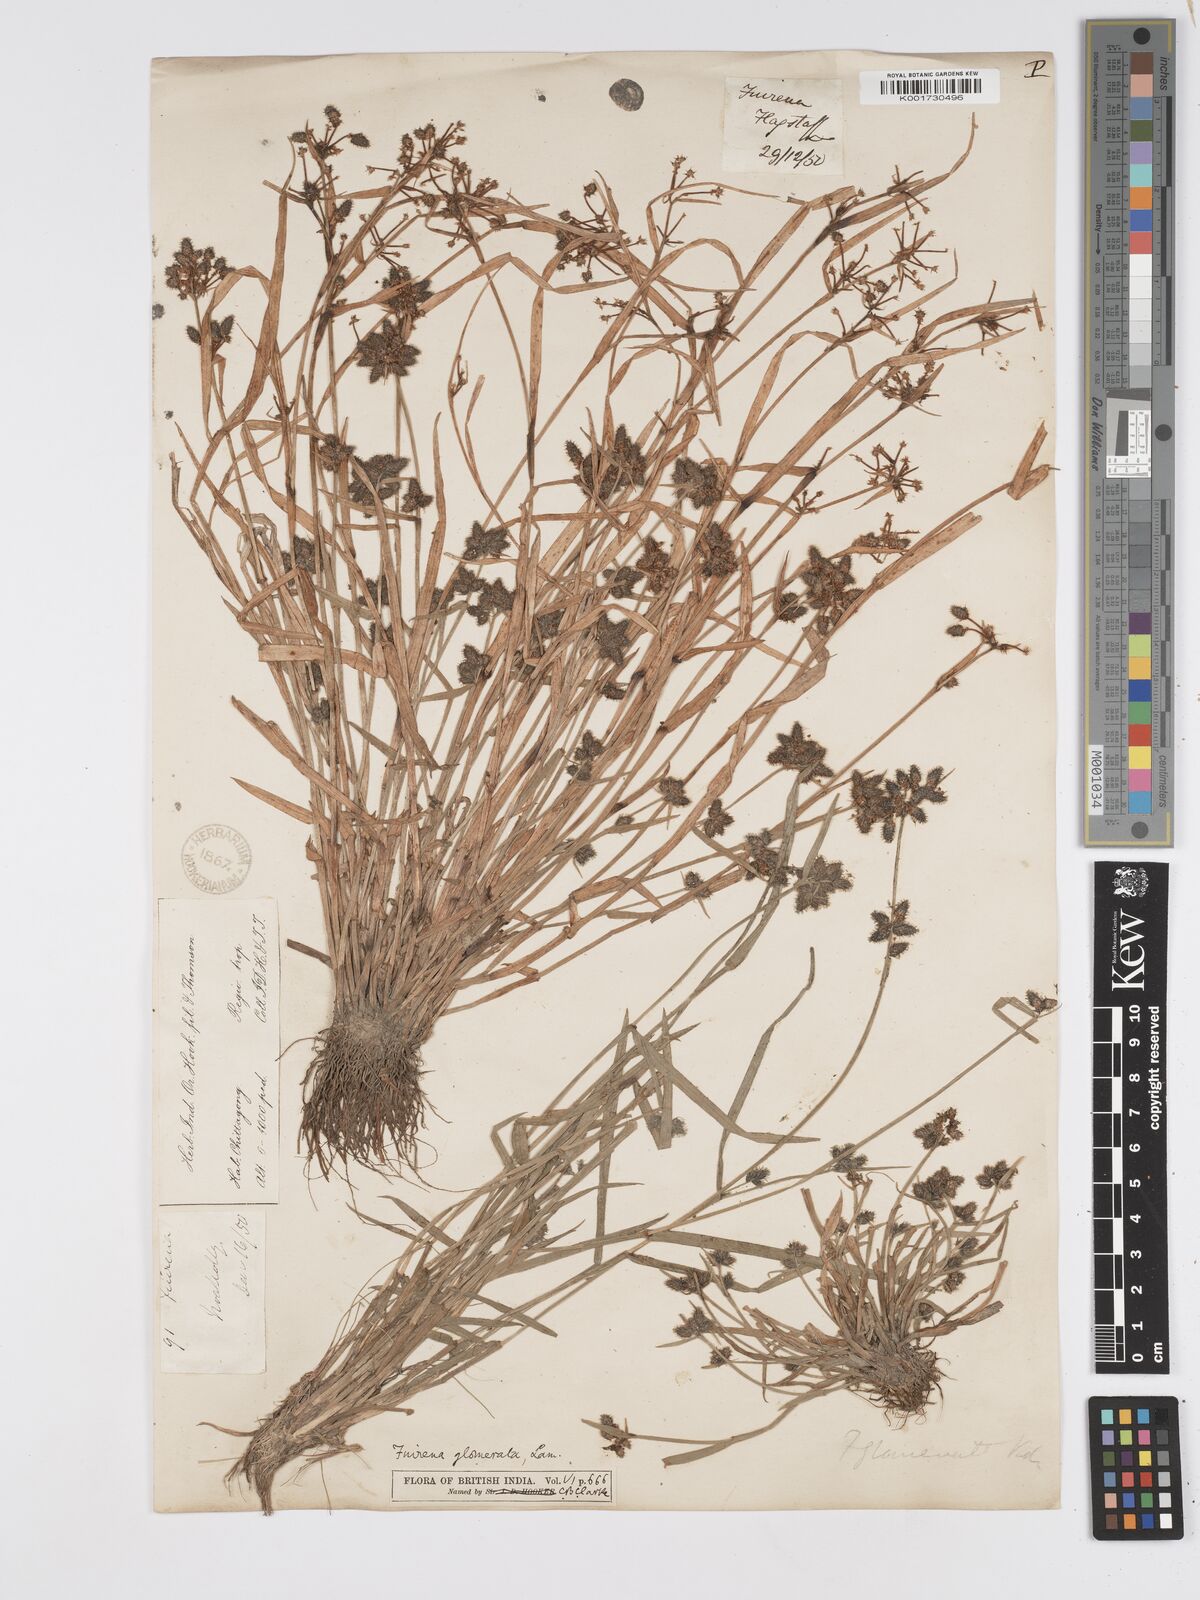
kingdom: Plantae
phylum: Tracheophyta
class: Liliopsida
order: Poales
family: Cyperaceae
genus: Fuirena
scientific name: Fuirena ciliaris
